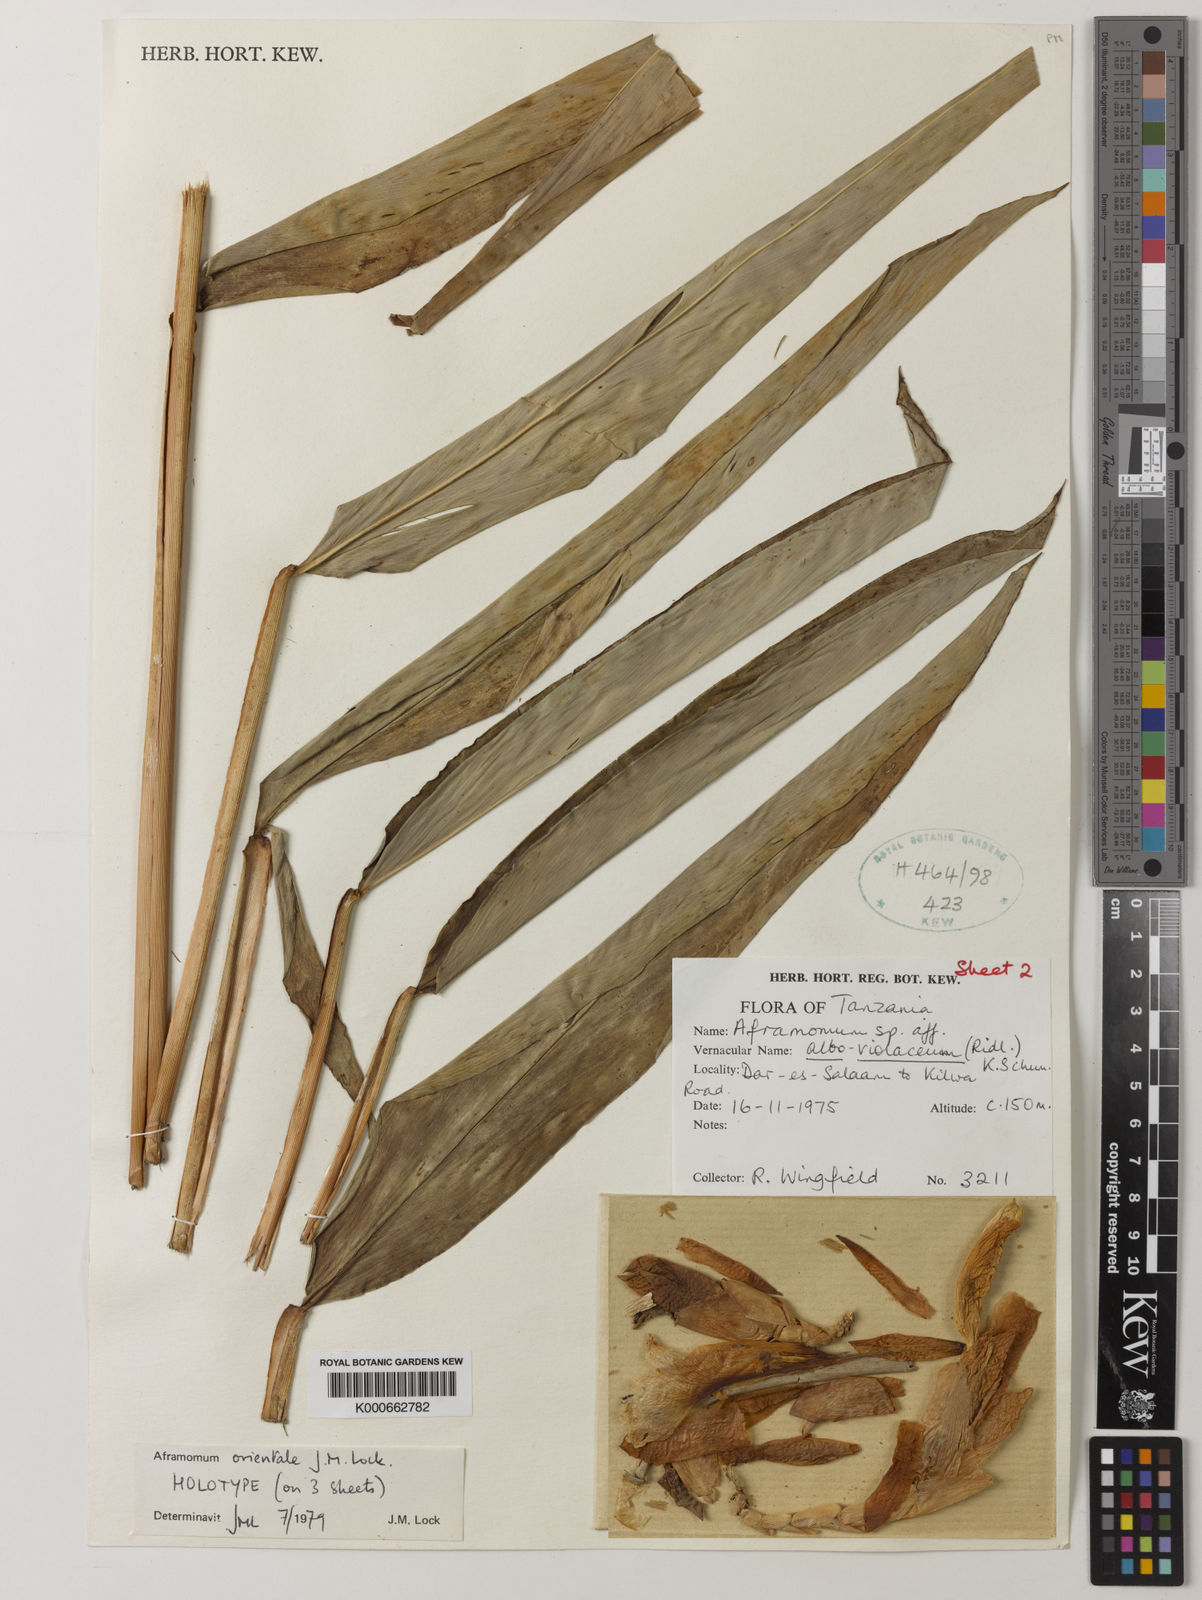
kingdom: Plantae
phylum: Tracheophyta
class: Liliopsida
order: Zingiberales
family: Zingiberaceae
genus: Aframomum
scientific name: Aframomum orientale
